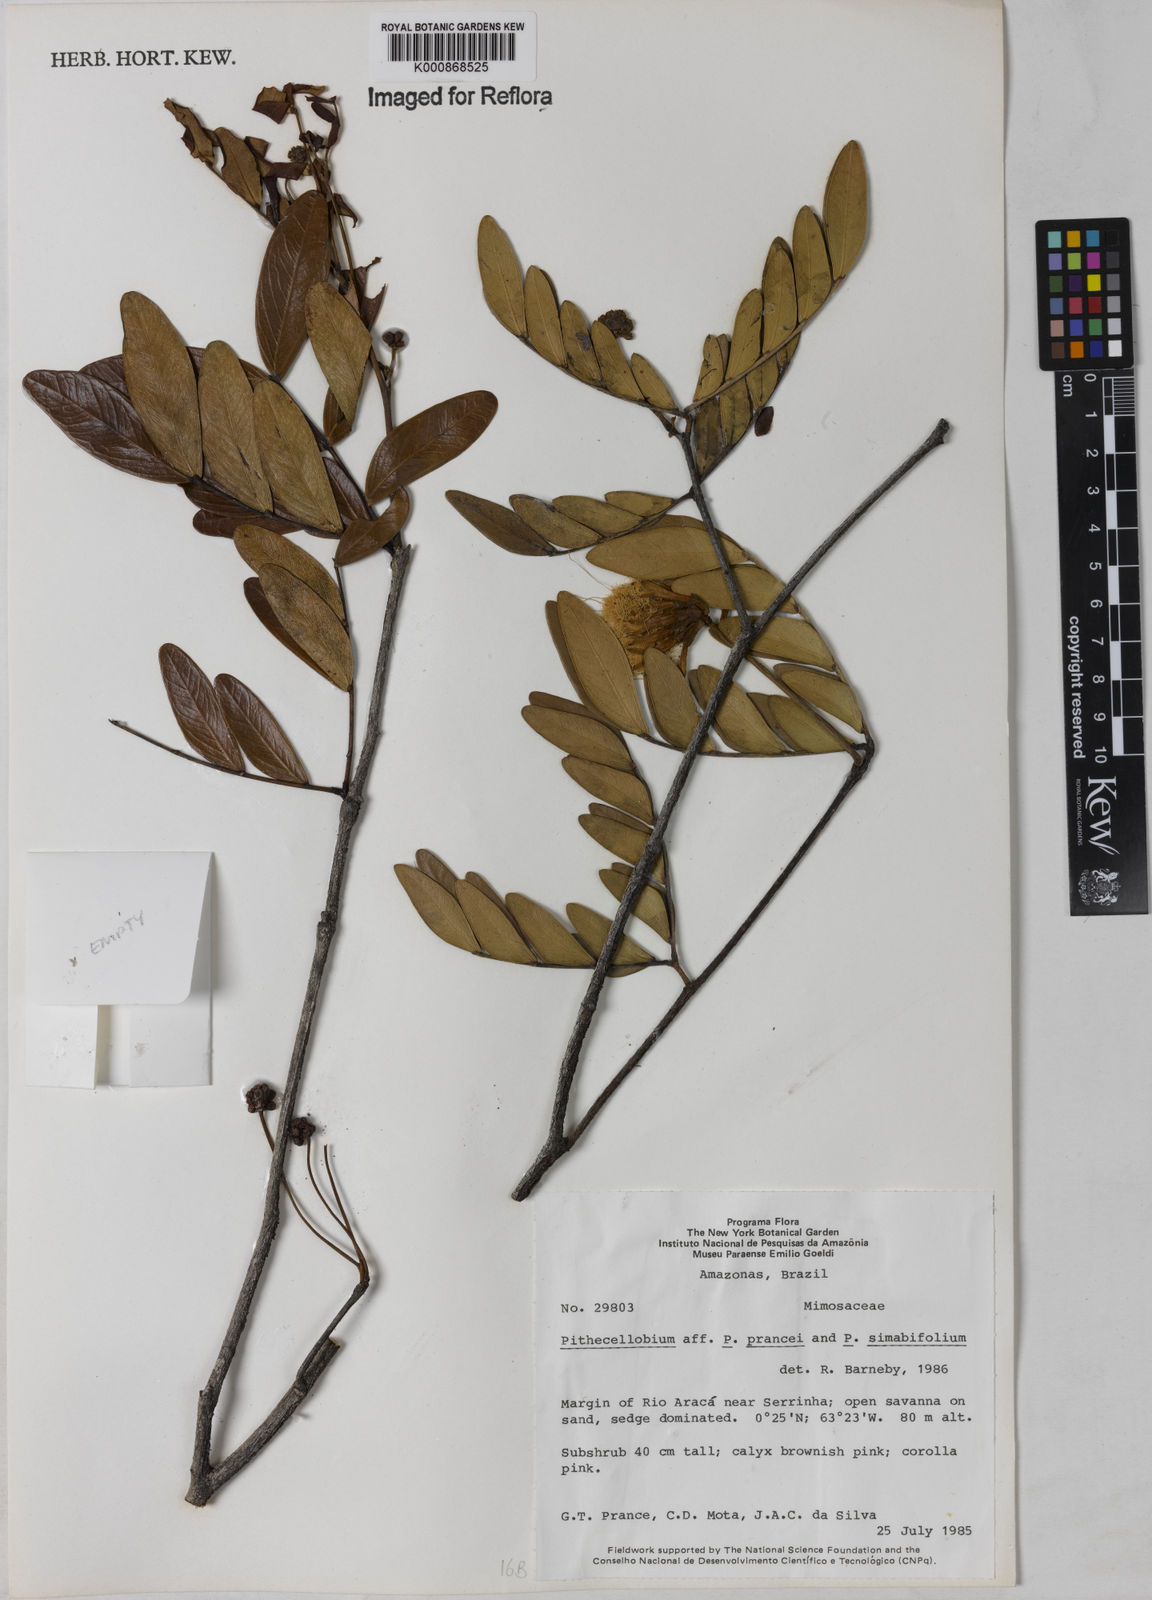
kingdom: Plantae
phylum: Tracheophyta
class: Magnoliopsida
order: Fabales
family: Fabaceae
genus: Macrosamanea
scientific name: Macrosamanea prancei
